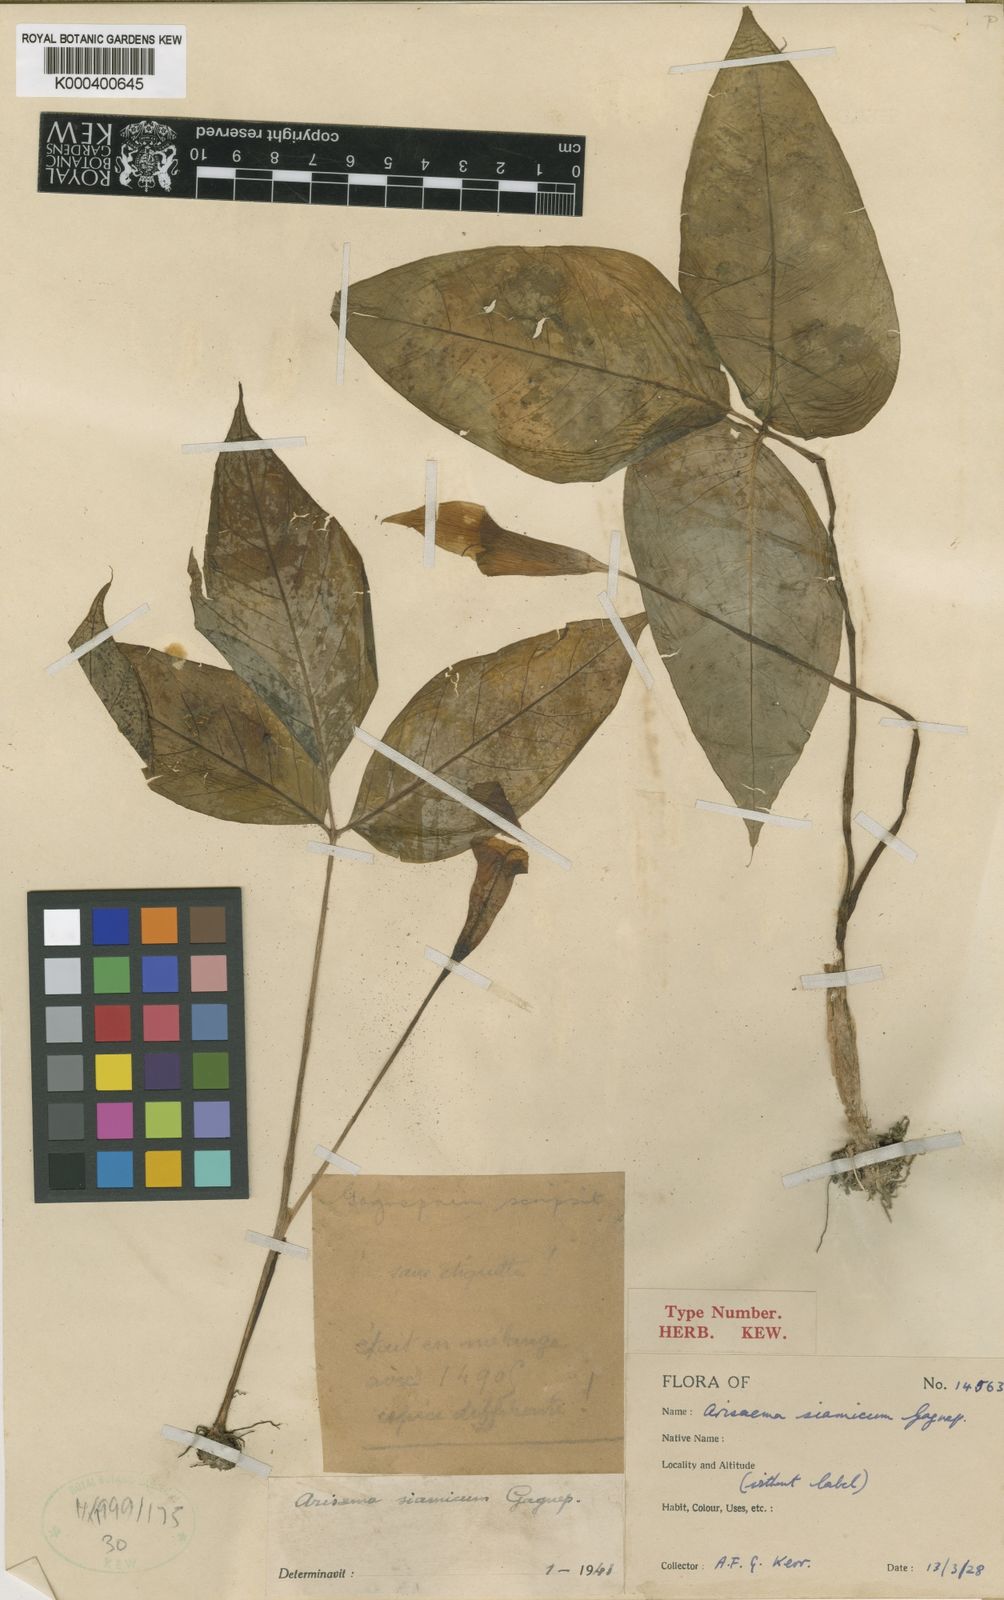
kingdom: Plantae
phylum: Tracheophyta
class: Liliopsida
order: Alismatales
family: Araceae
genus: Arisaema
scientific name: Arisaema siamicum
